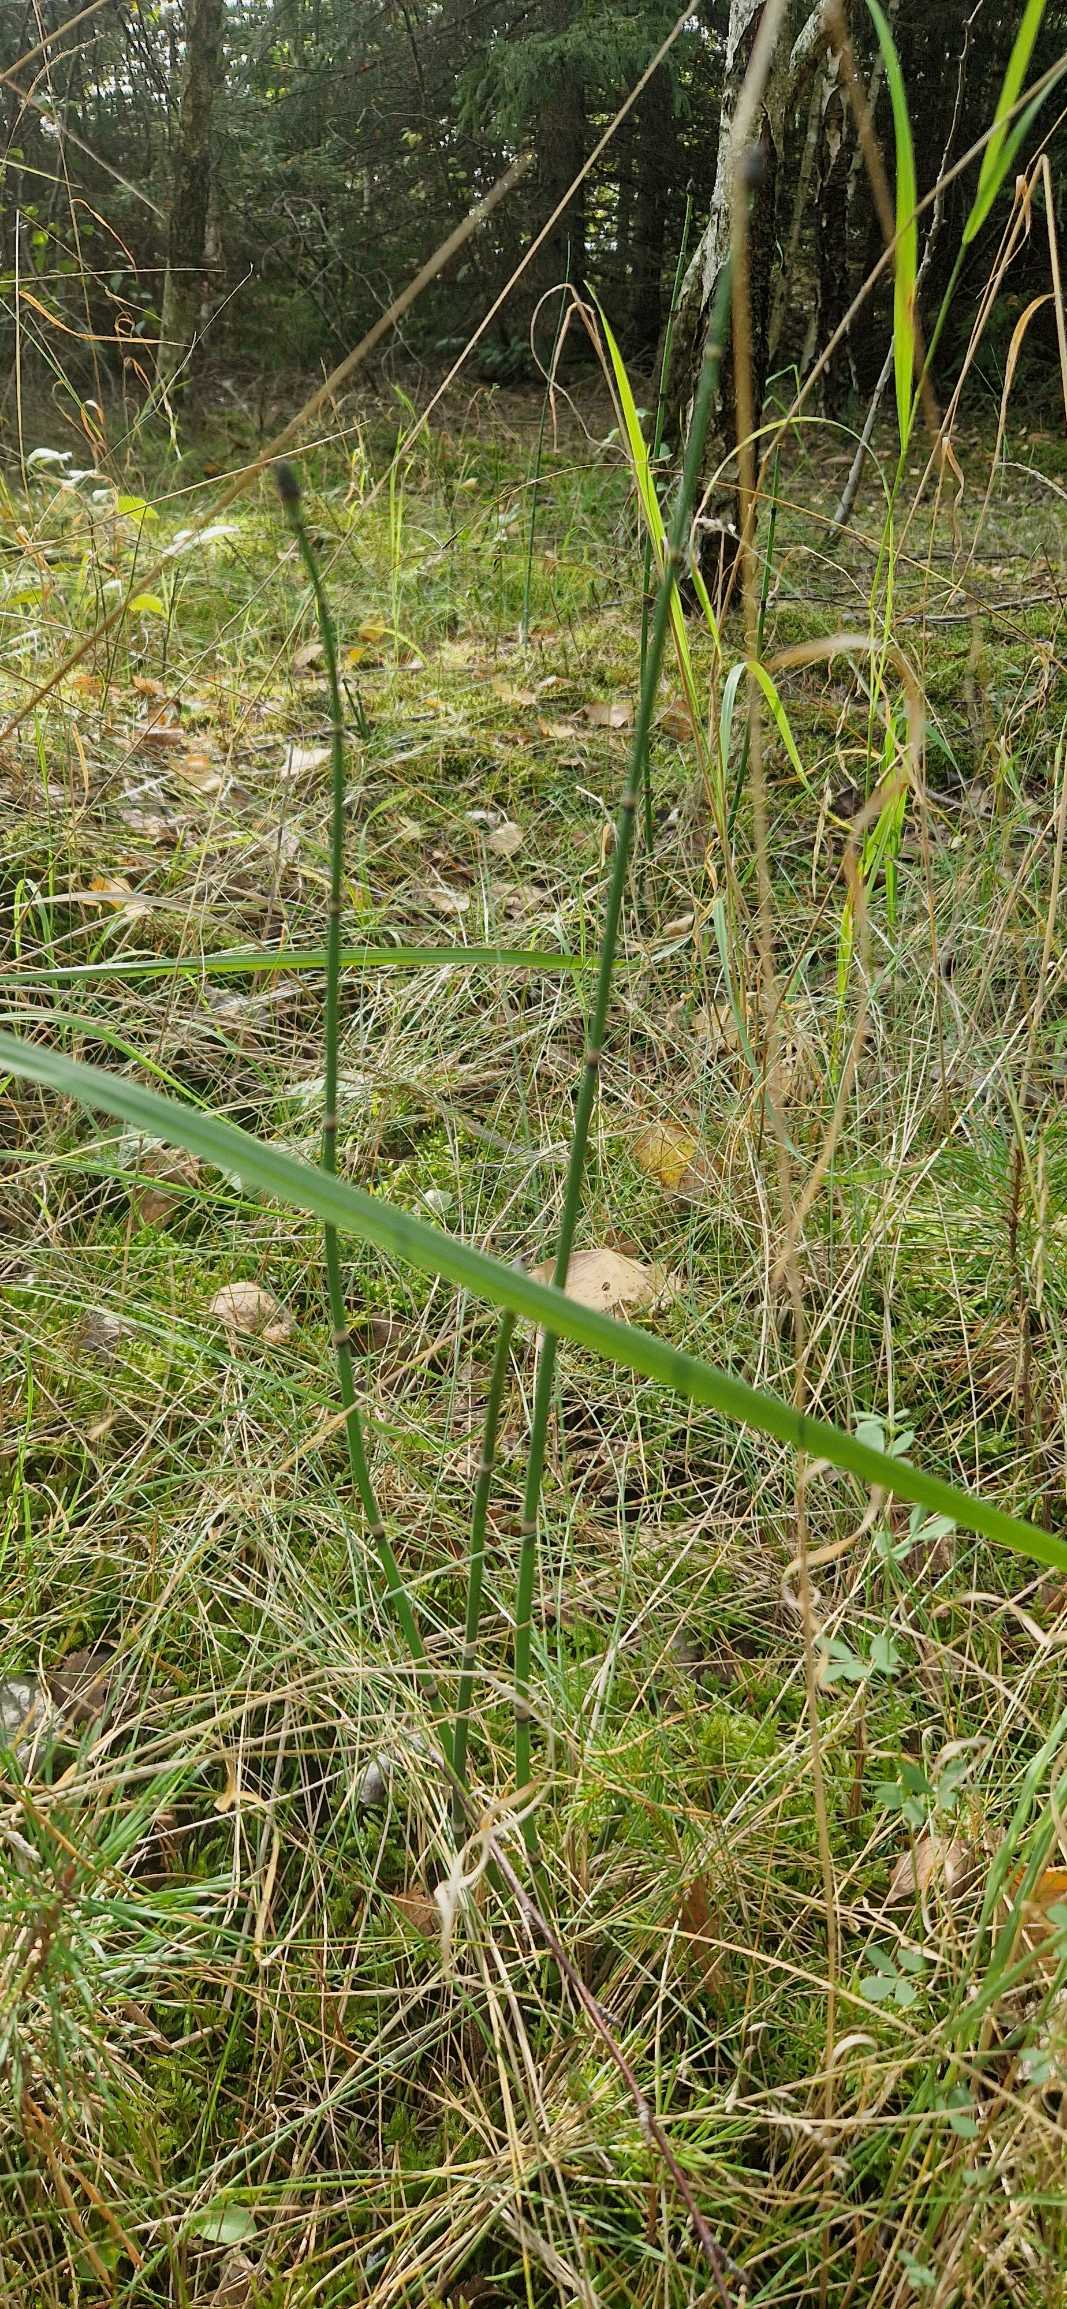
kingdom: Plantae
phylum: Tracheophyta
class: Polypodiopsida
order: Equisetales
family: Equisetaceae
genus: Equisetum
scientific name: Equisetum hyemale
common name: Skavgræs
